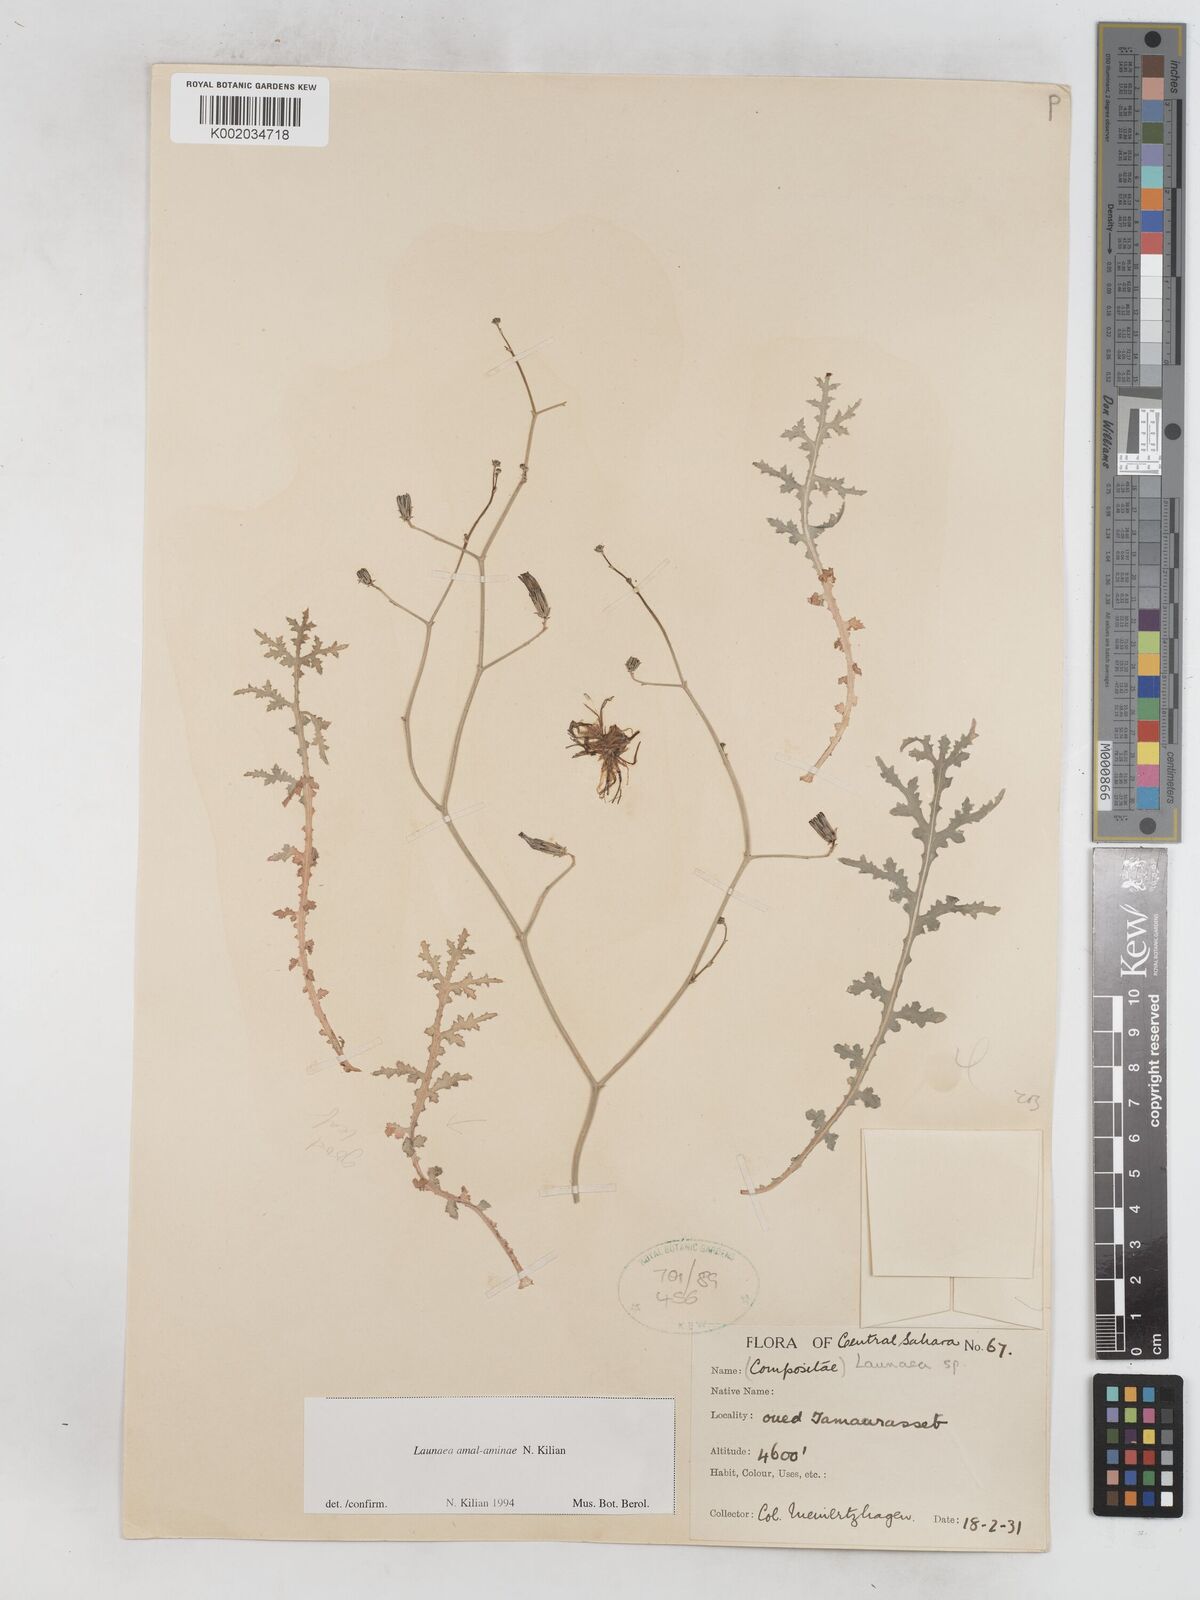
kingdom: Plantae
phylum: Tracheophyta
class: Magnoliopsida
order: Asterales
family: Asteraceae
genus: Launaea
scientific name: Launaea amal-aminiae
